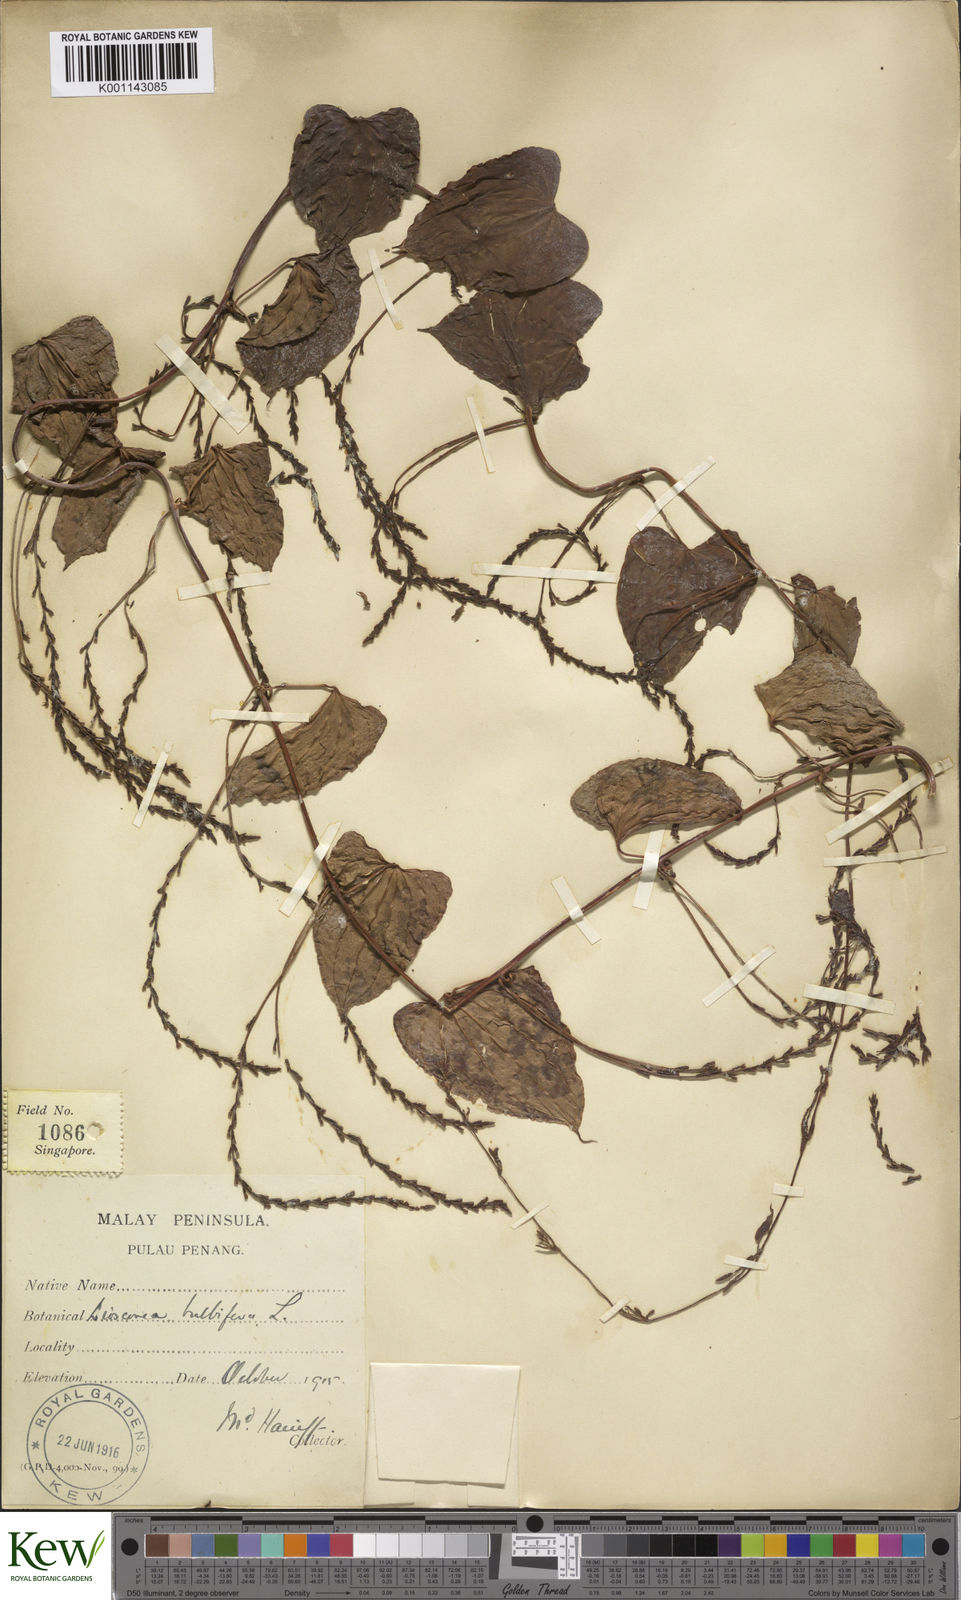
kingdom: Plantae
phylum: Tracheophyta
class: Liliopsida
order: Dioscoreales
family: Dioscoreaceae
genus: Dioscorea
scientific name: Dioscorea bulbifera
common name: Air yam
